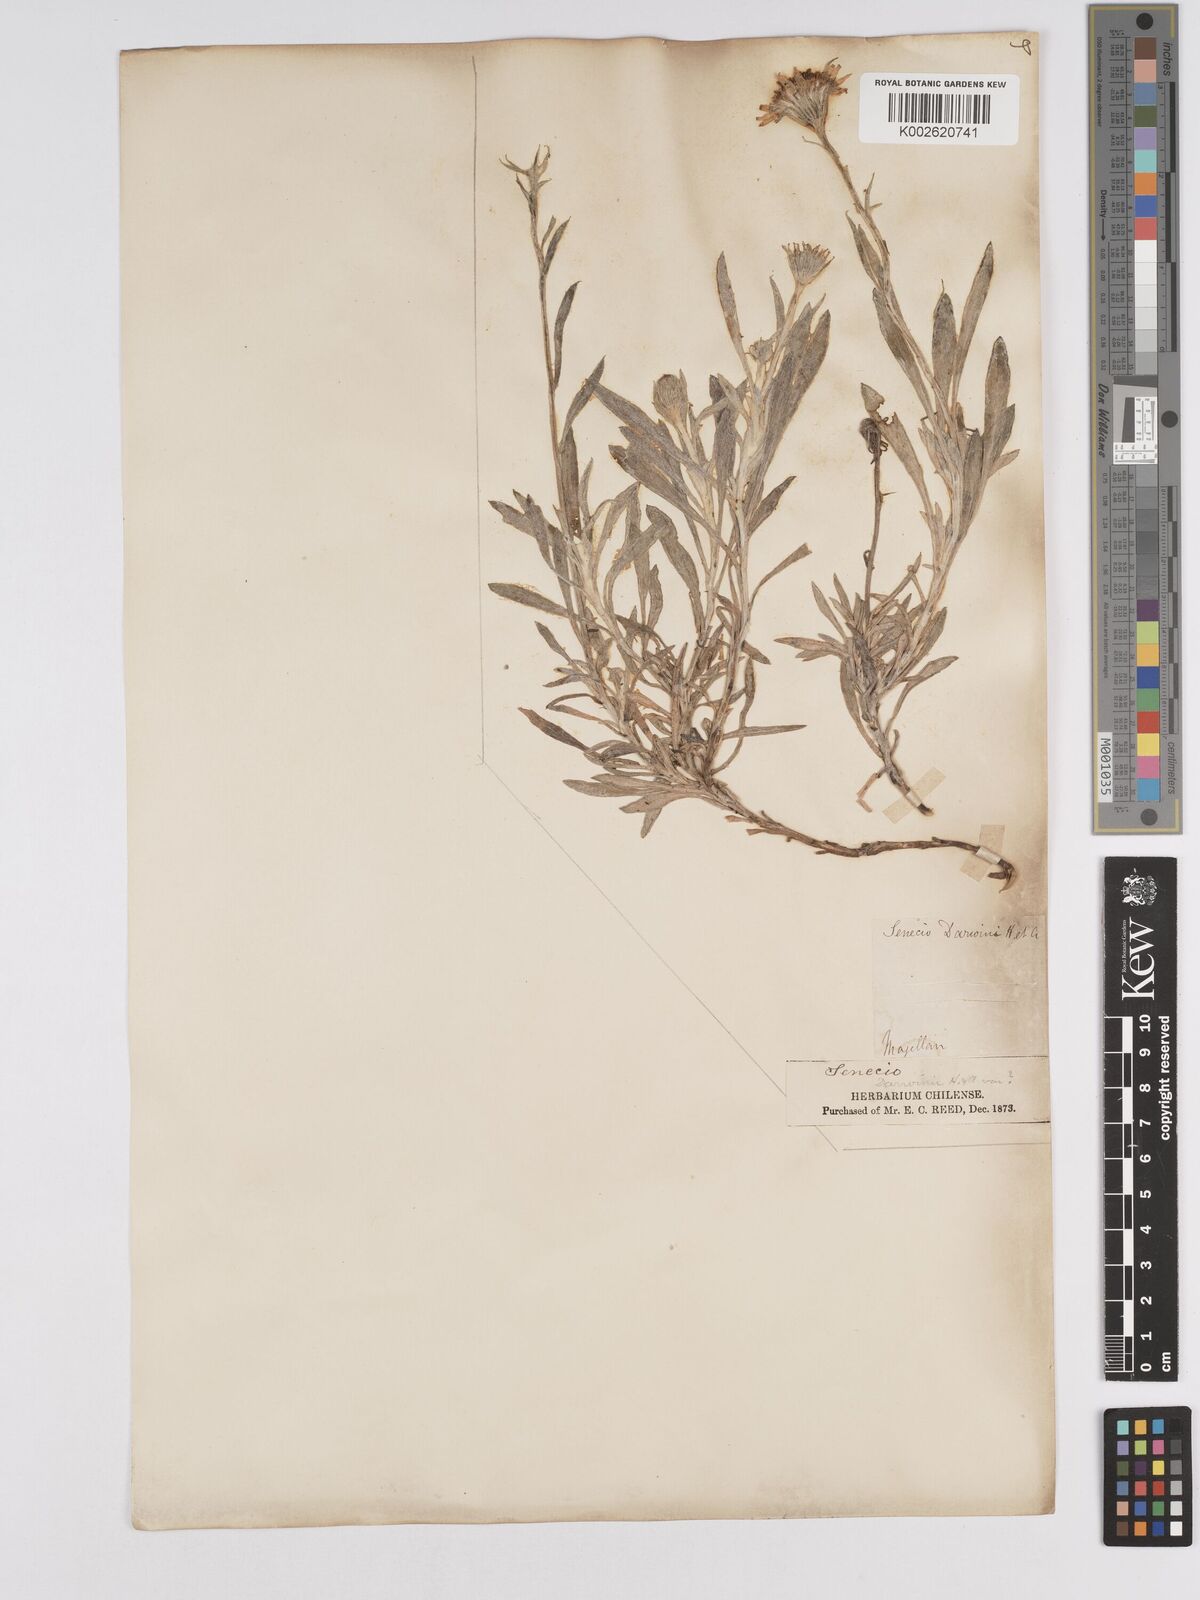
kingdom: Plantae
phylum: Tracheophyta
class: Magnoliopsida
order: Asterales
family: Asteraceae
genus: Senecio
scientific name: Senecio darwinii
